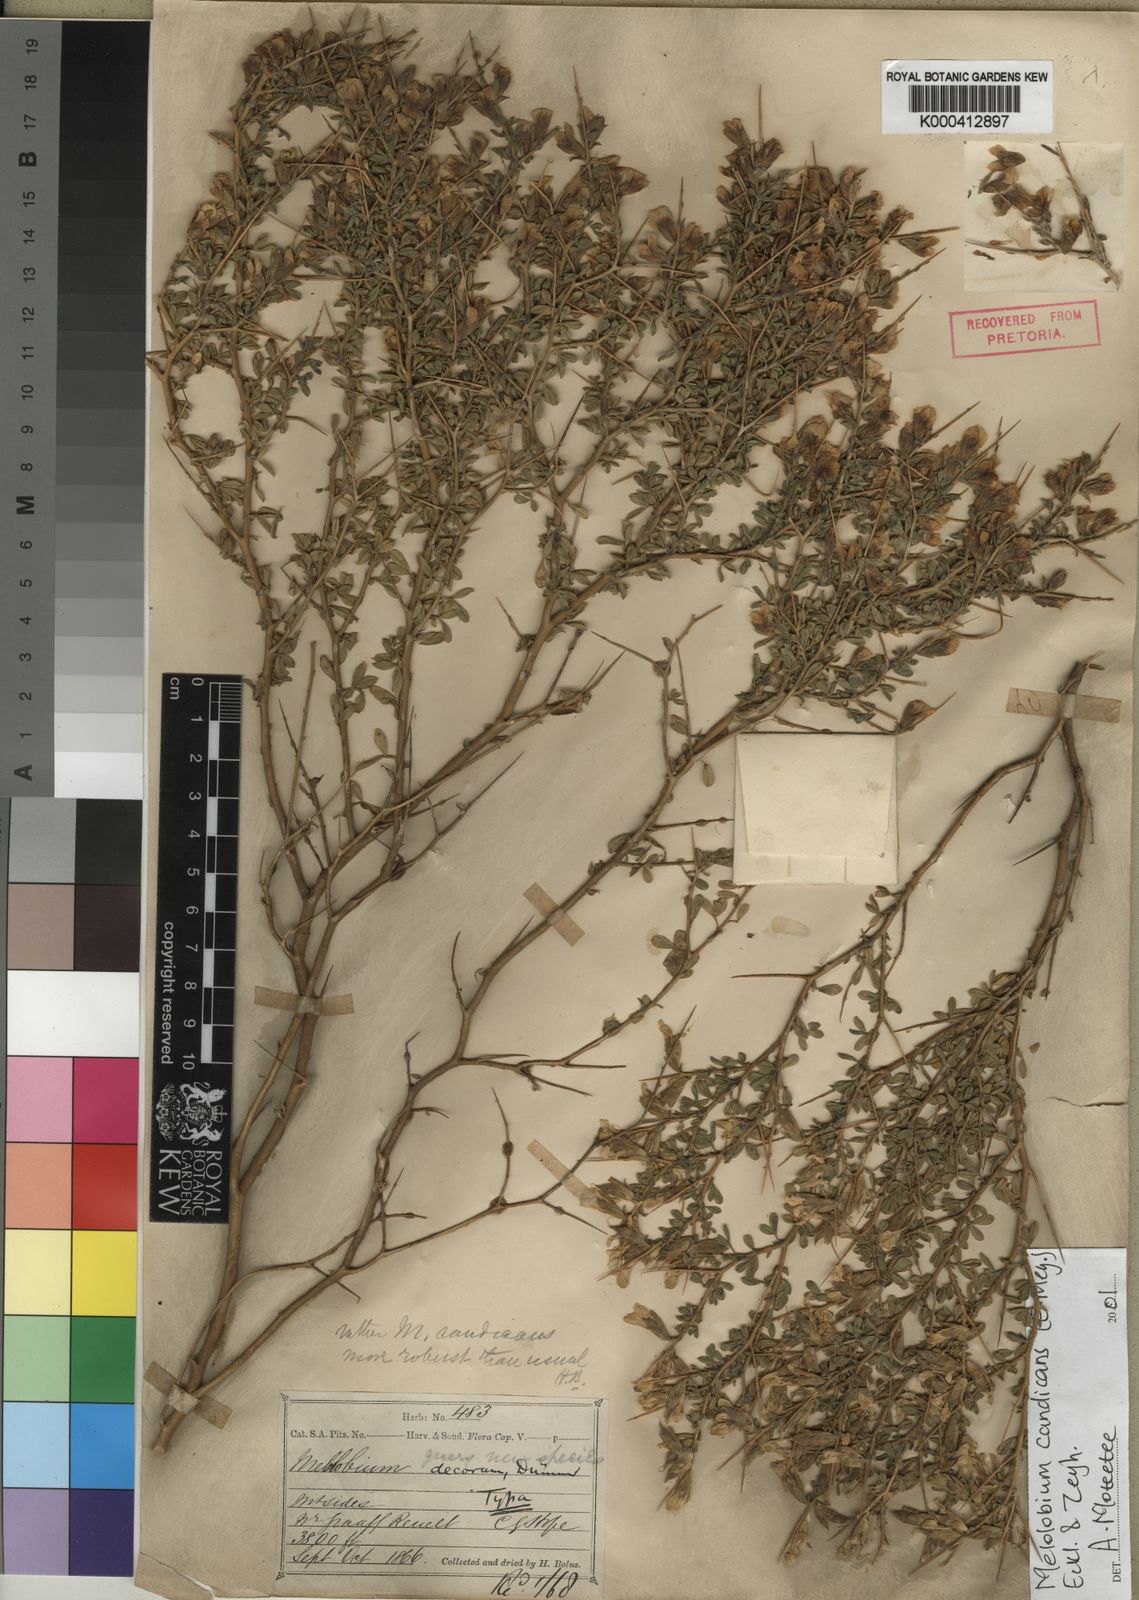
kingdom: Plantae
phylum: Tracheophyta
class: Magnoliopsida
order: Fabales
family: Fabaceae
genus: Melolobium
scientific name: Melolobium candicans
